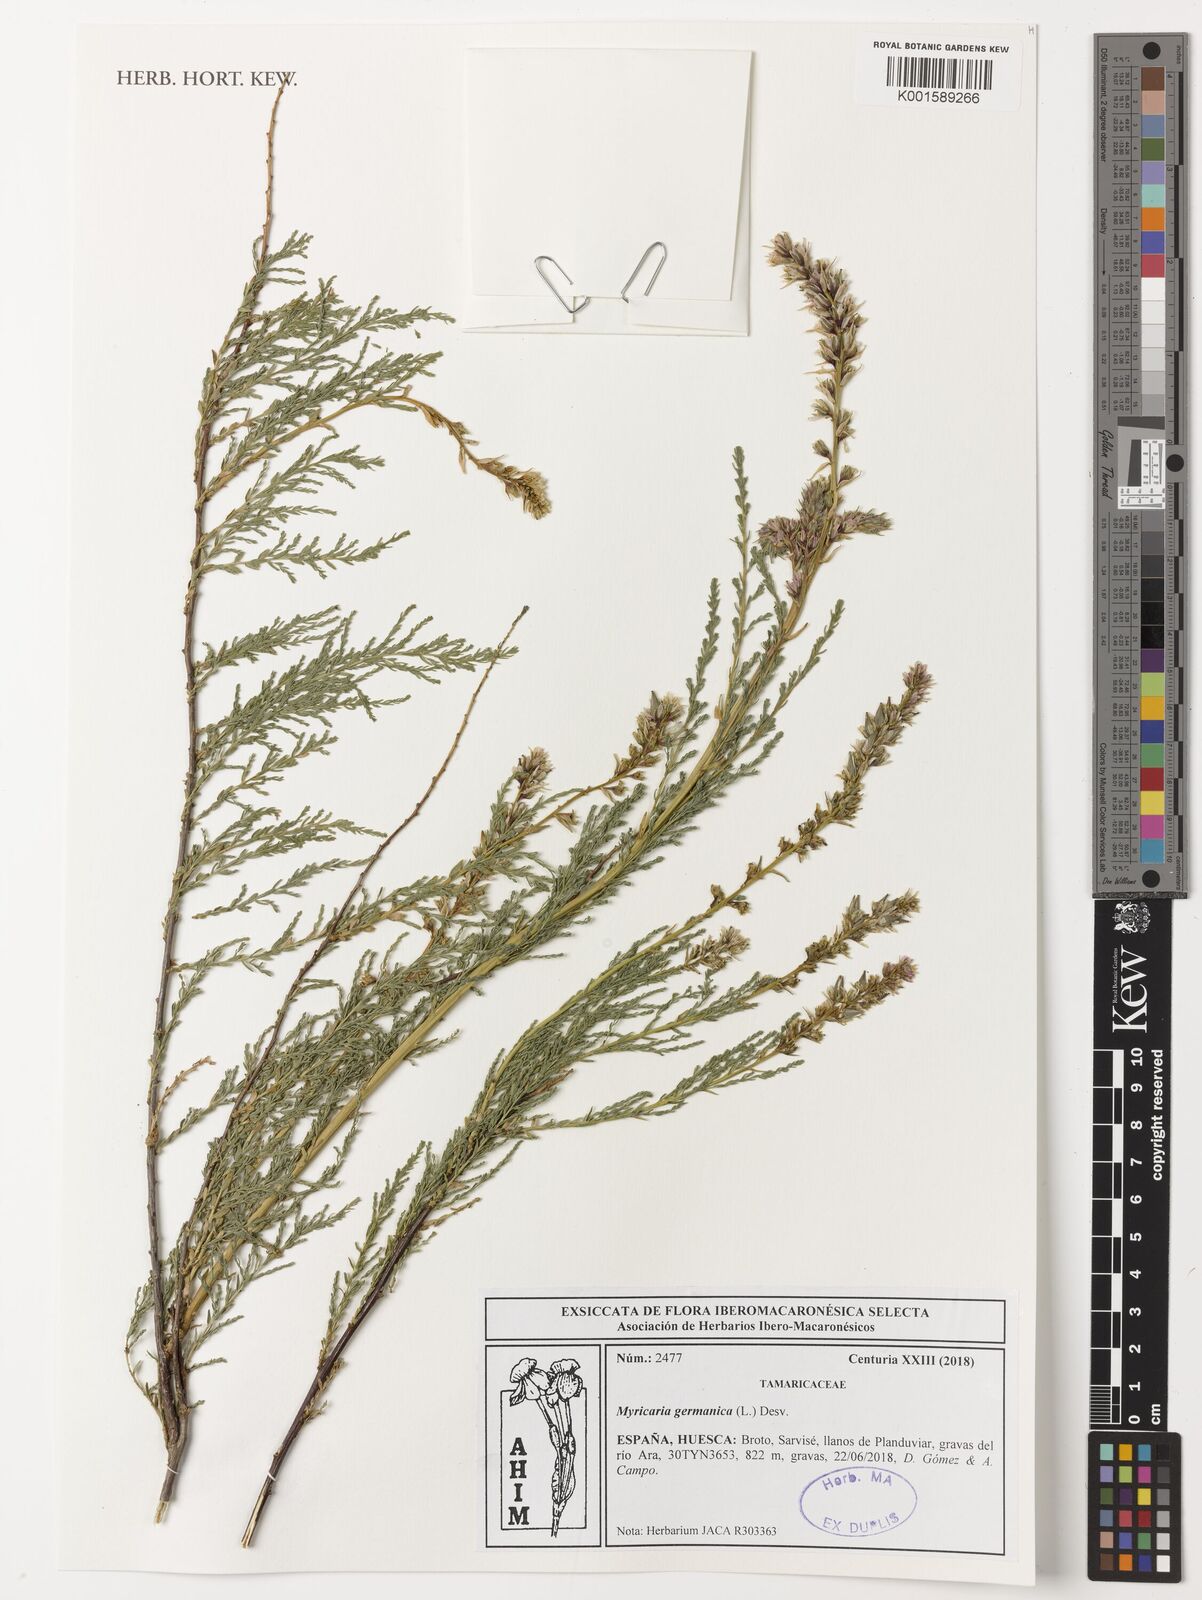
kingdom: Plantae
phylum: Tracheophyta
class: Magnoliopsida
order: Caryophyllales
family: Tamaricaceae
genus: Myricaria
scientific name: Myricaria germanica
